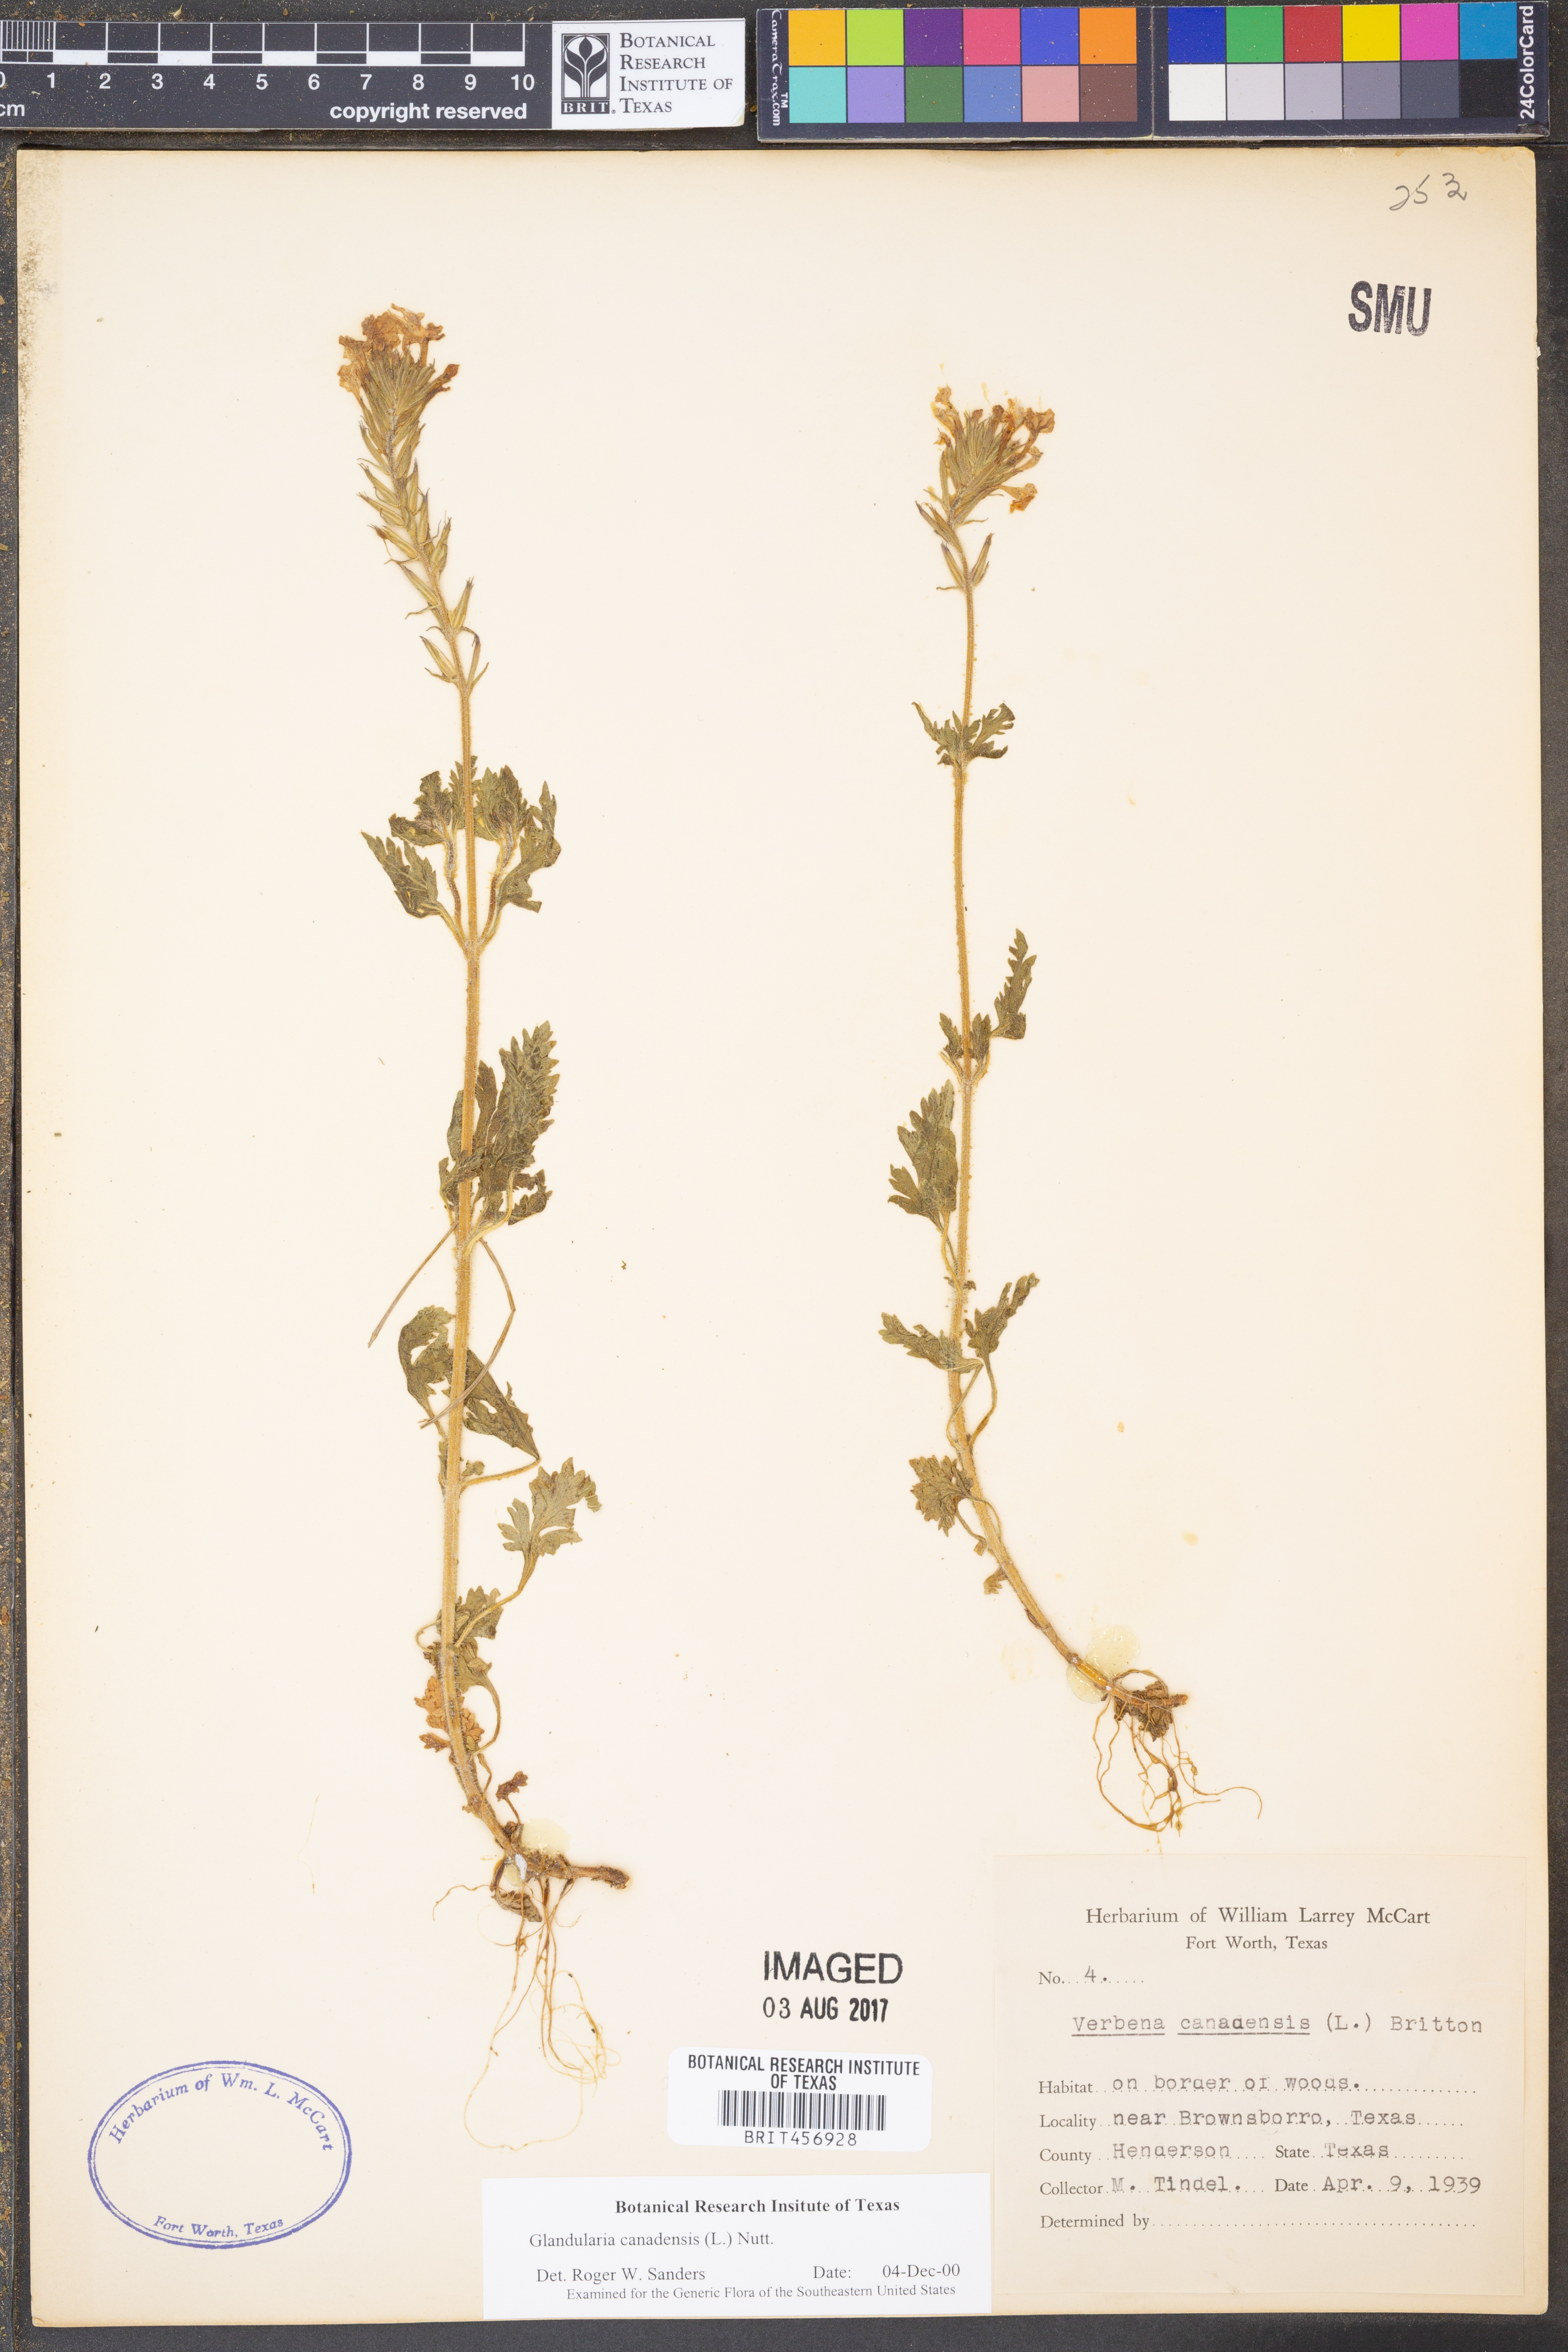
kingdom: Plantae
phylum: Tracheophyta
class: Magnoliopsida
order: Lamiales
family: Verbenaceae
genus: Verbena
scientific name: Verbena canadensis
